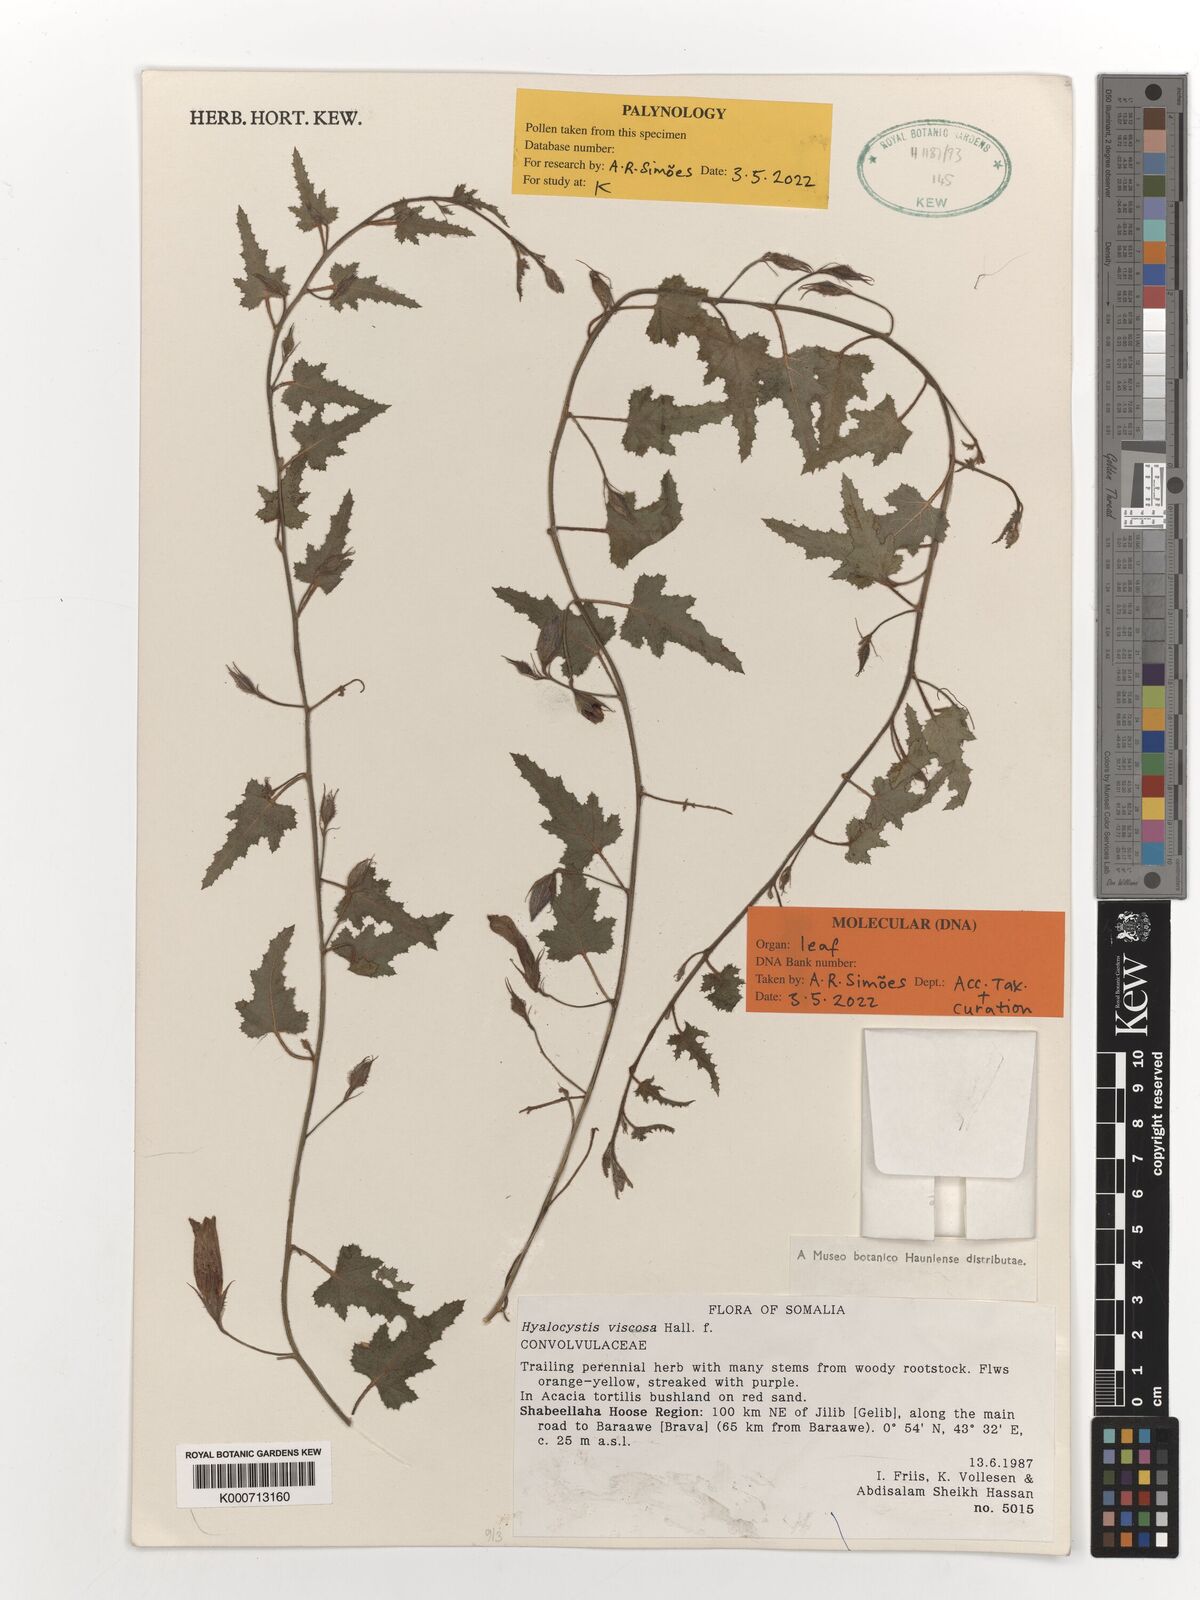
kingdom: Plantae
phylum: Tracheophyta
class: Magnoliopsida
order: Solanales
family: Convolvulaceae
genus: Hyalocystis
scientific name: Hyalocystis viscosa
